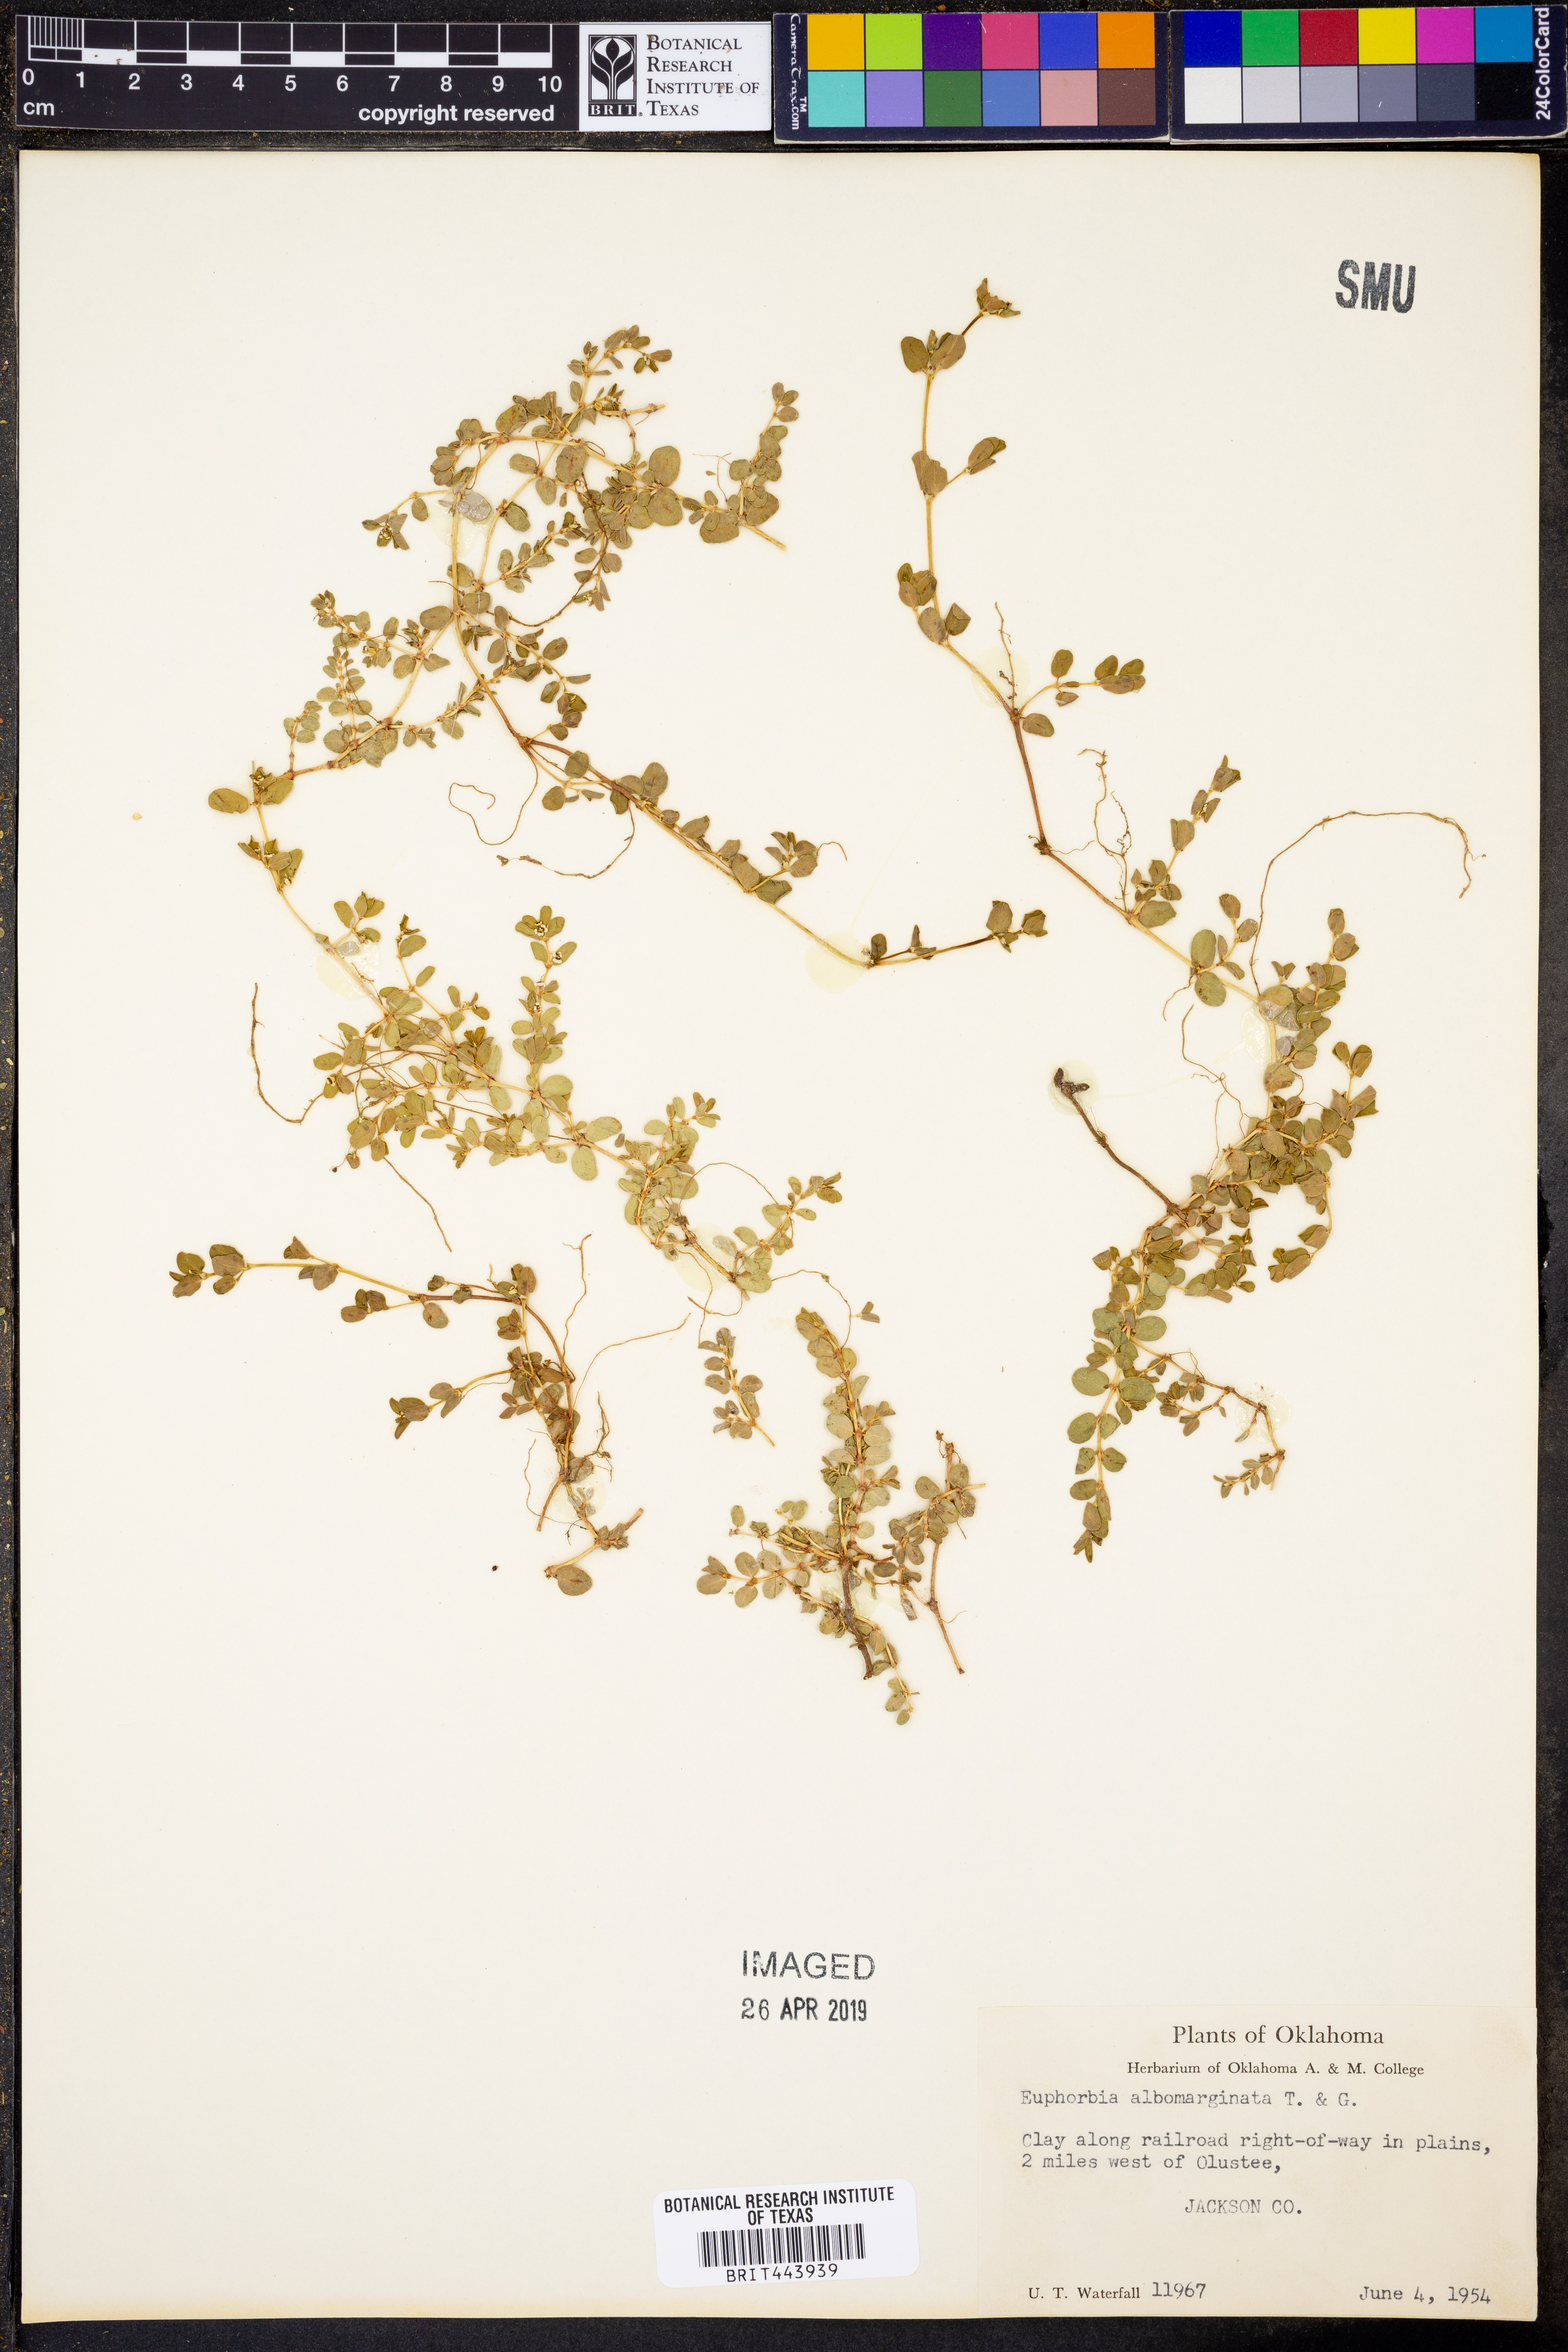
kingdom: Plantae
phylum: Tracheophyta
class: Magnoliopsida
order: Malpighiales
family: Euphorbiaceae
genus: Euphorbia
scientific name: Euphorbia albomarginata
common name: Whitemargin sandmat
